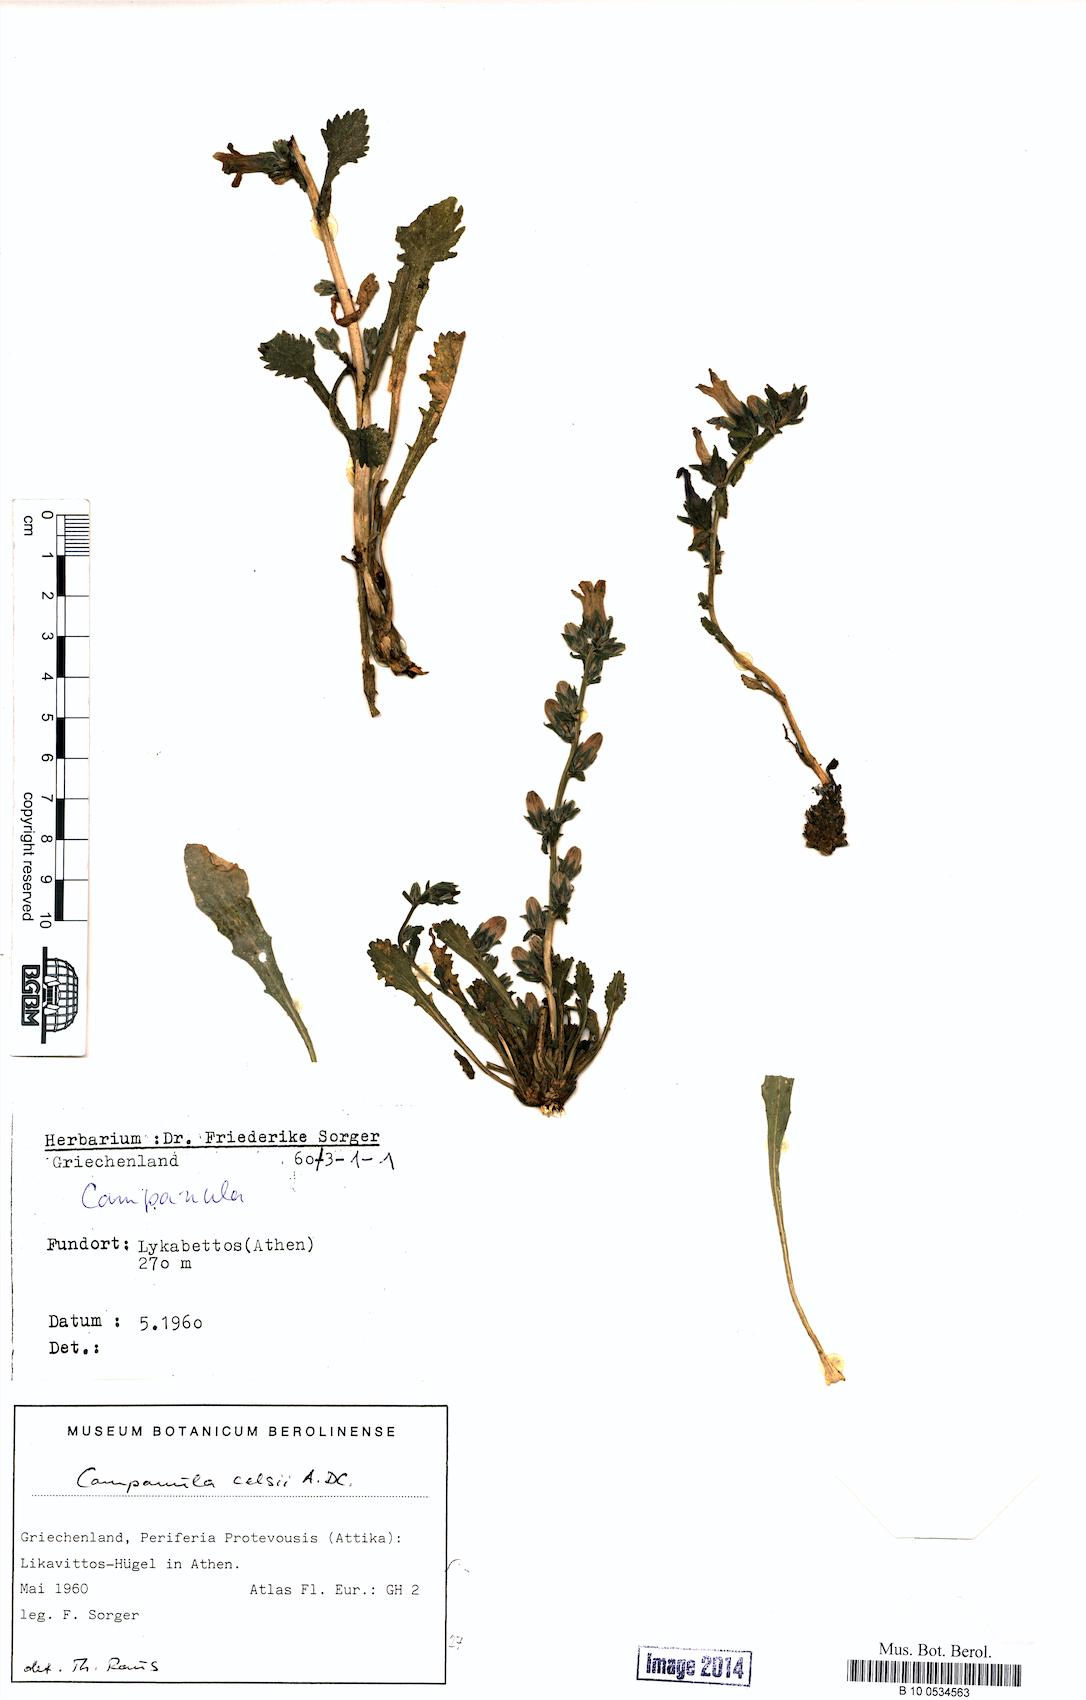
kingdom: Plantae
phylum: Tracheophyta
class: Magnoliopsida
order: Asterales
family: Campanulaceae
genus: Campanula
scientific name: Campanula celsii
